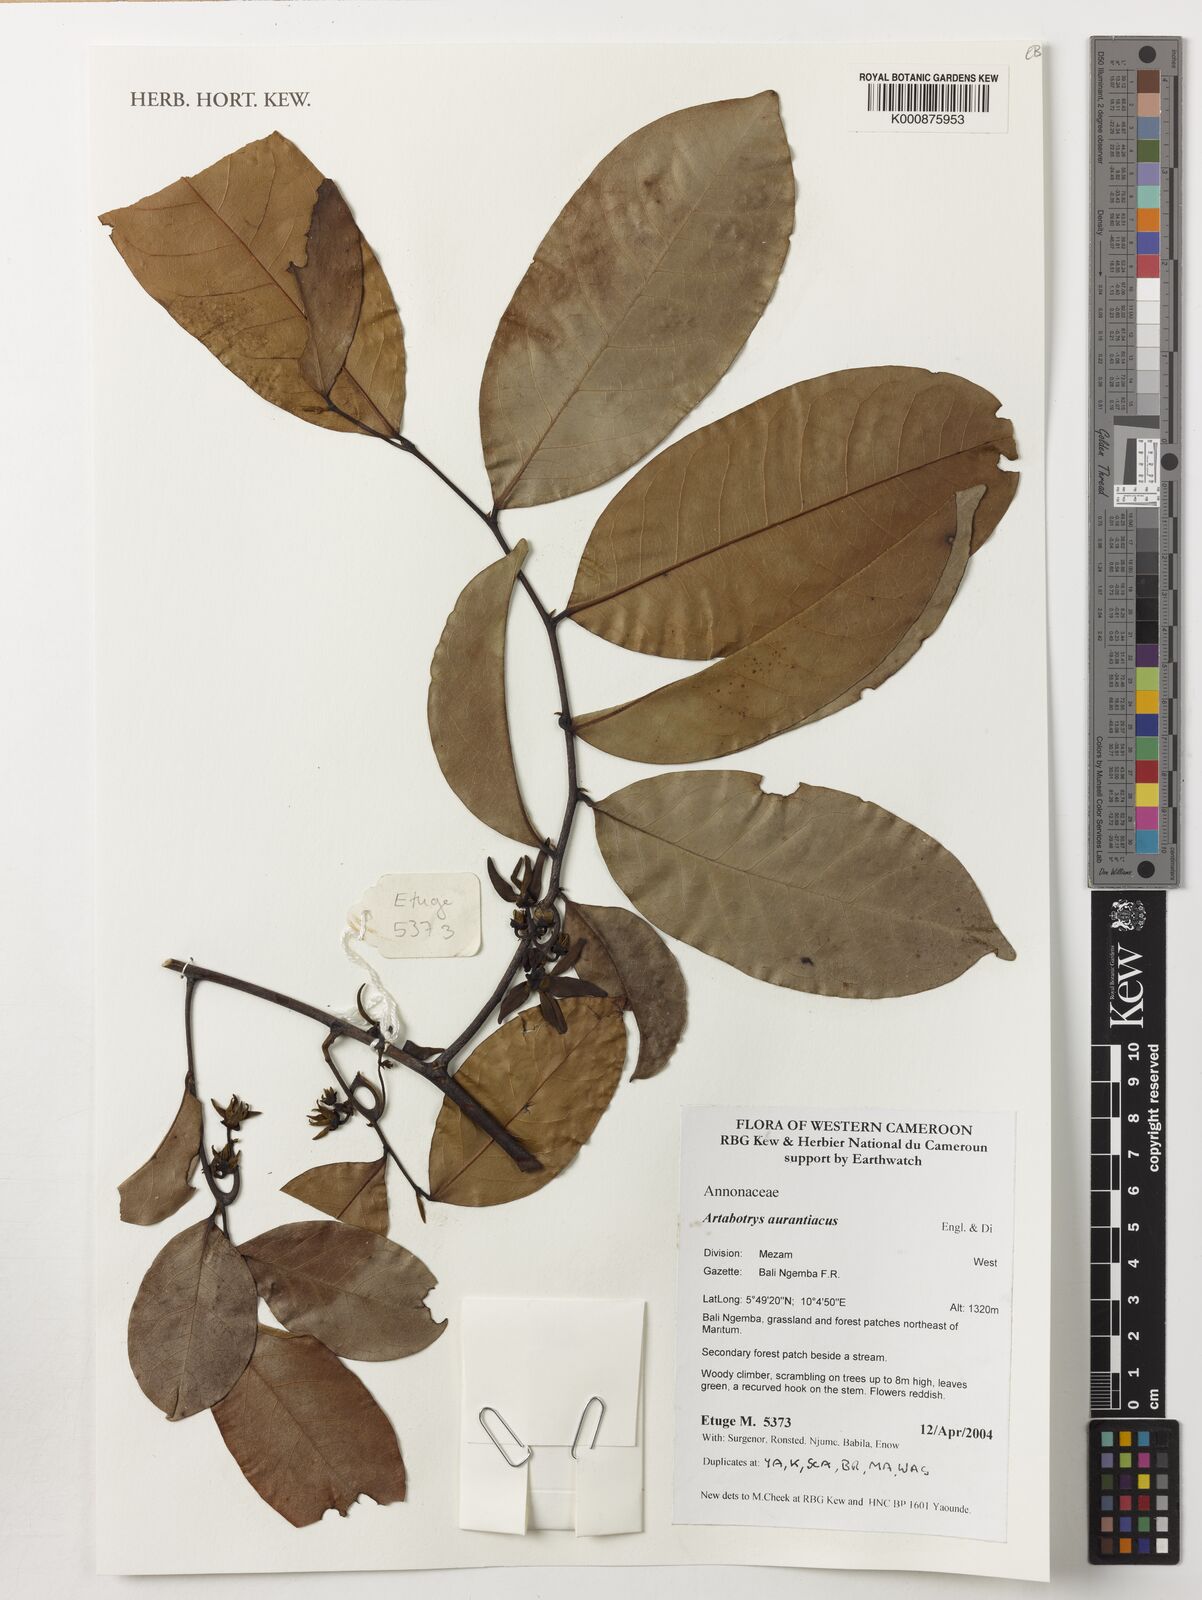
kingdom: Plantae
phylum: Tracheophyta
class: Magnoliopsida
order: Magnoliales
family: Annonaceae
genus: Artabotrys
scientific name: Artabotrys aurantiacus
